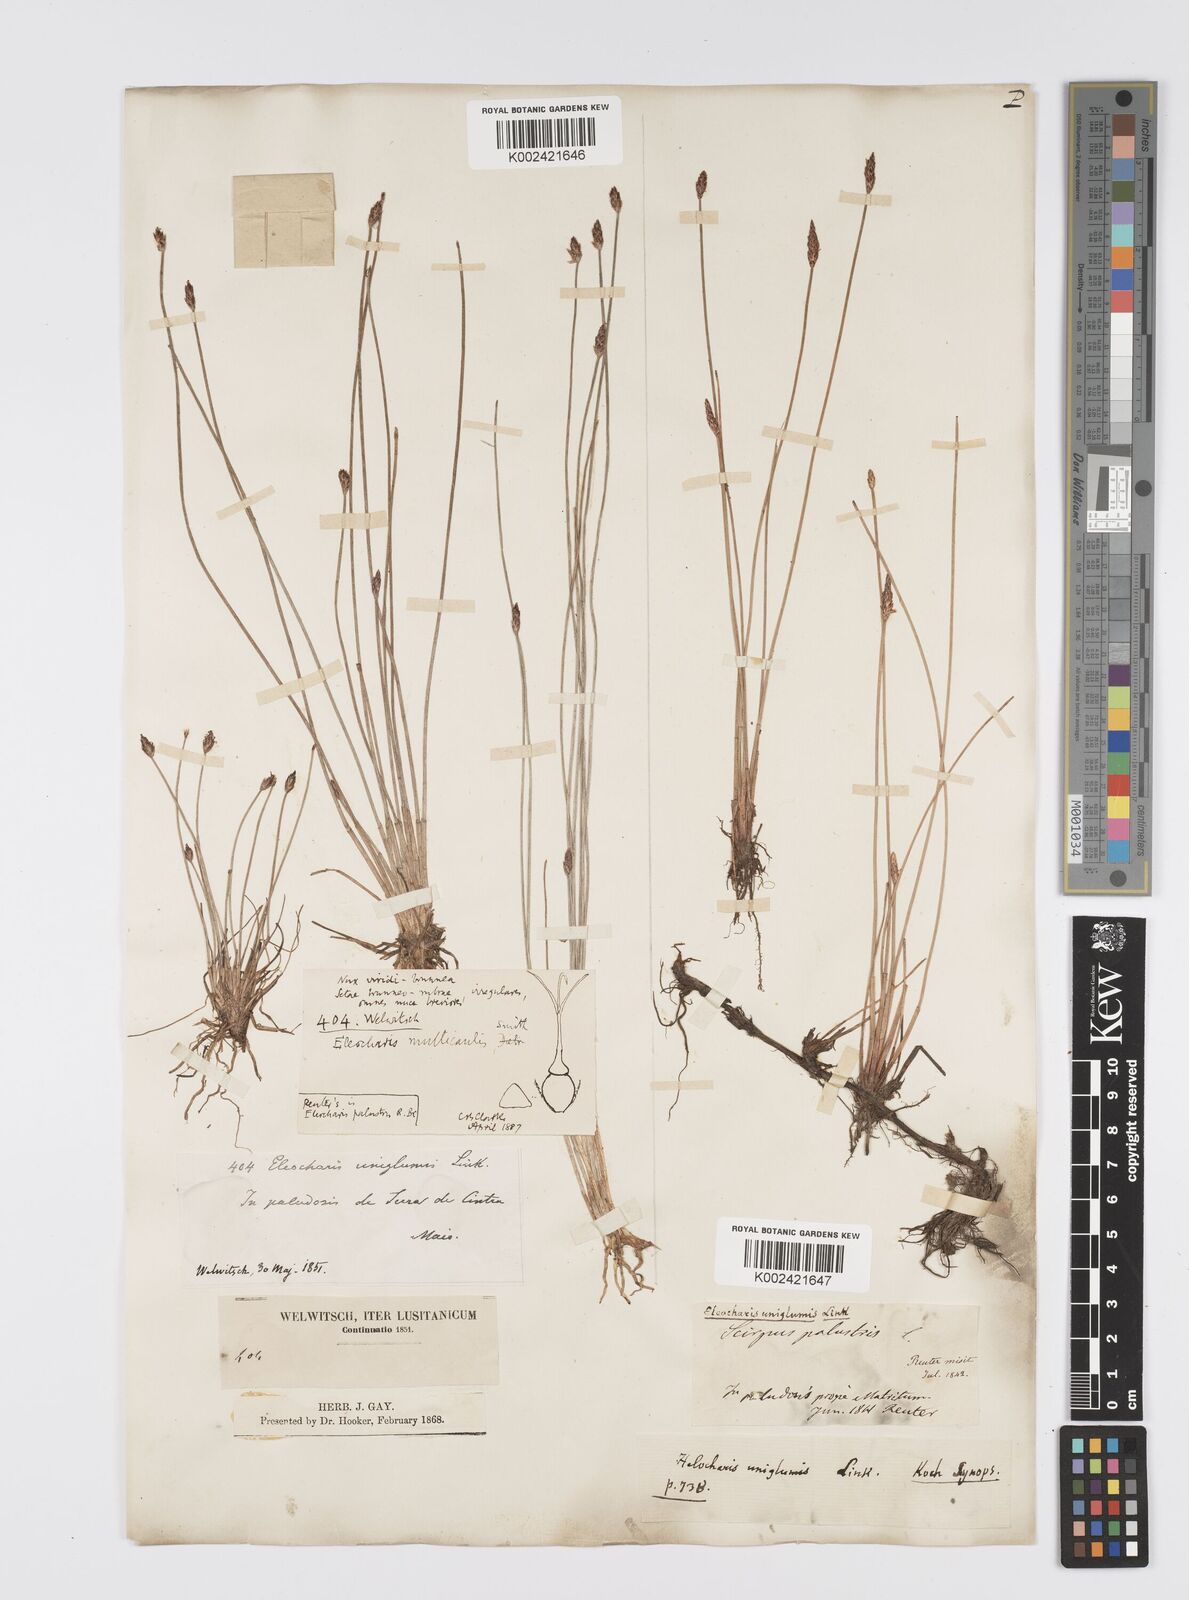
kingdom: Plantae
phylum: Tracheophyta
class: Liliopsida
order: Poales
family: Cyperaceae
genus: Eleocharis
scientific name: Eleocharis multicaulis
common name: Many-stalked spike-rush
